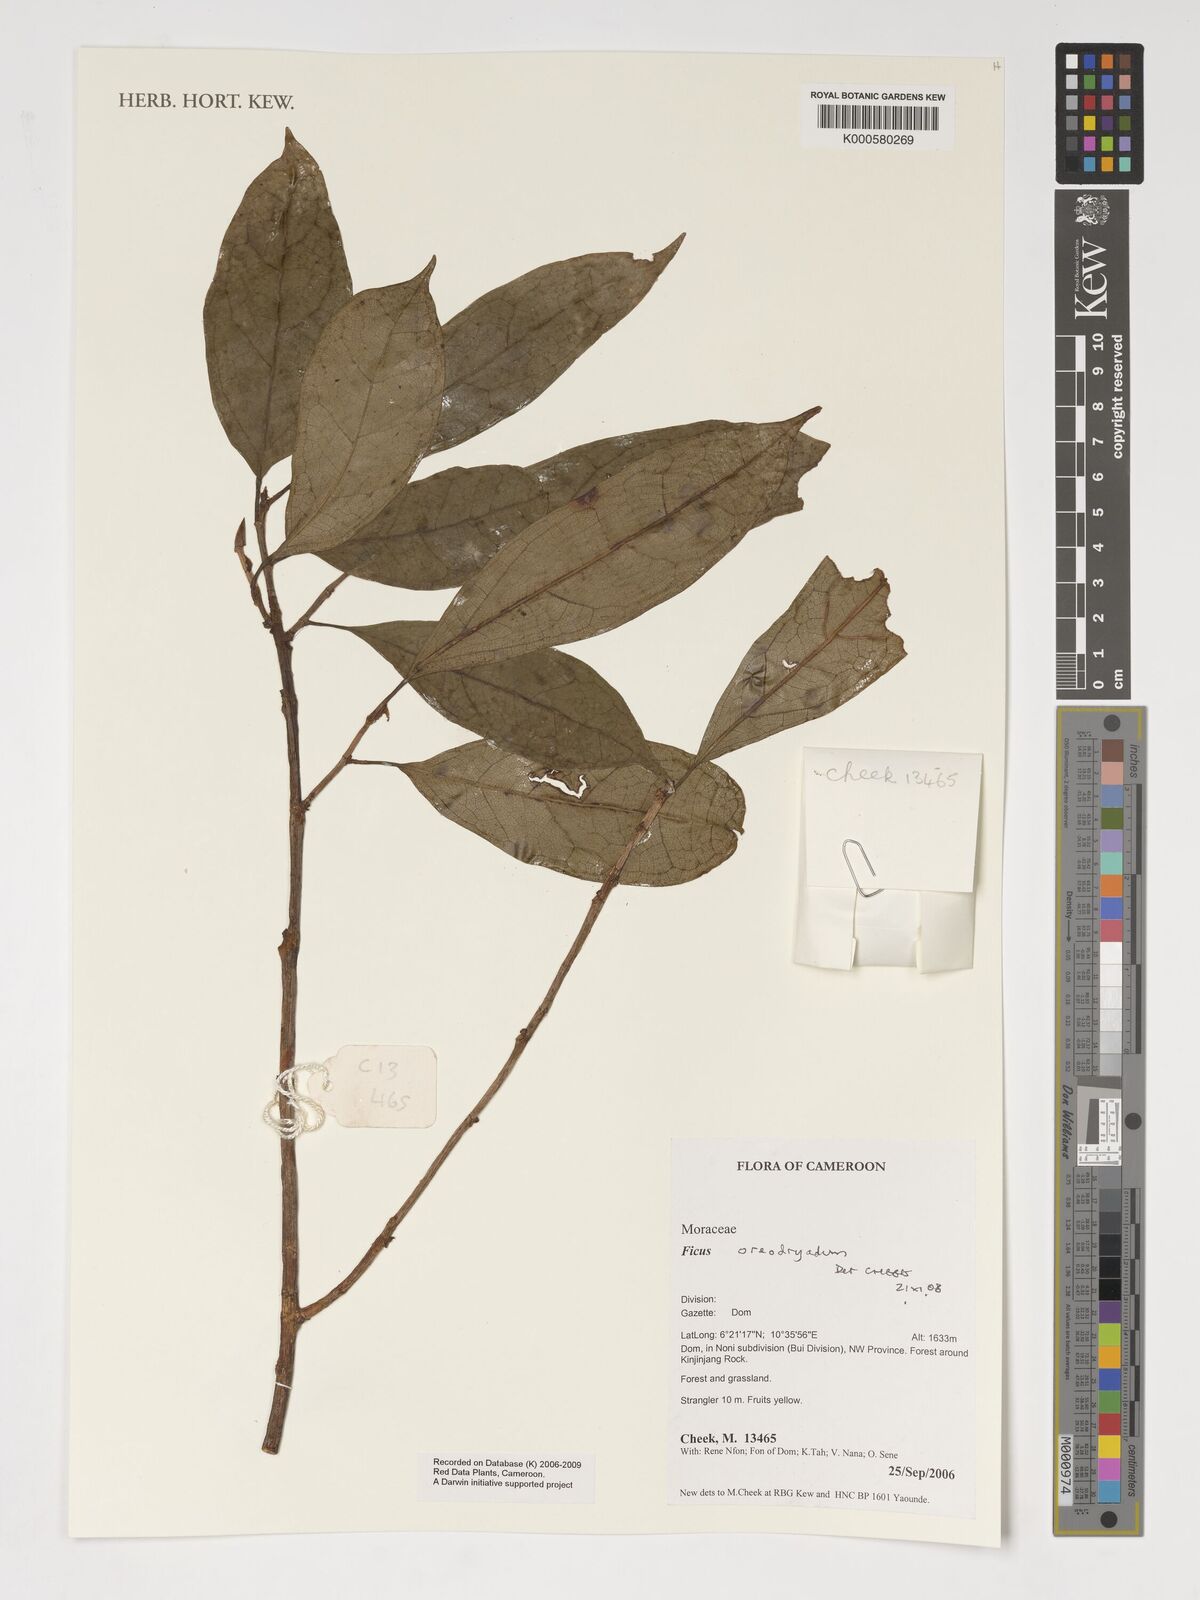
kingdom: Plantae
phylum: Tracheophyta
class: Magnoliopsida
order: Rosales
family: Moraceae
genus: Ficus
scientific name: Ficus oreodryadum
